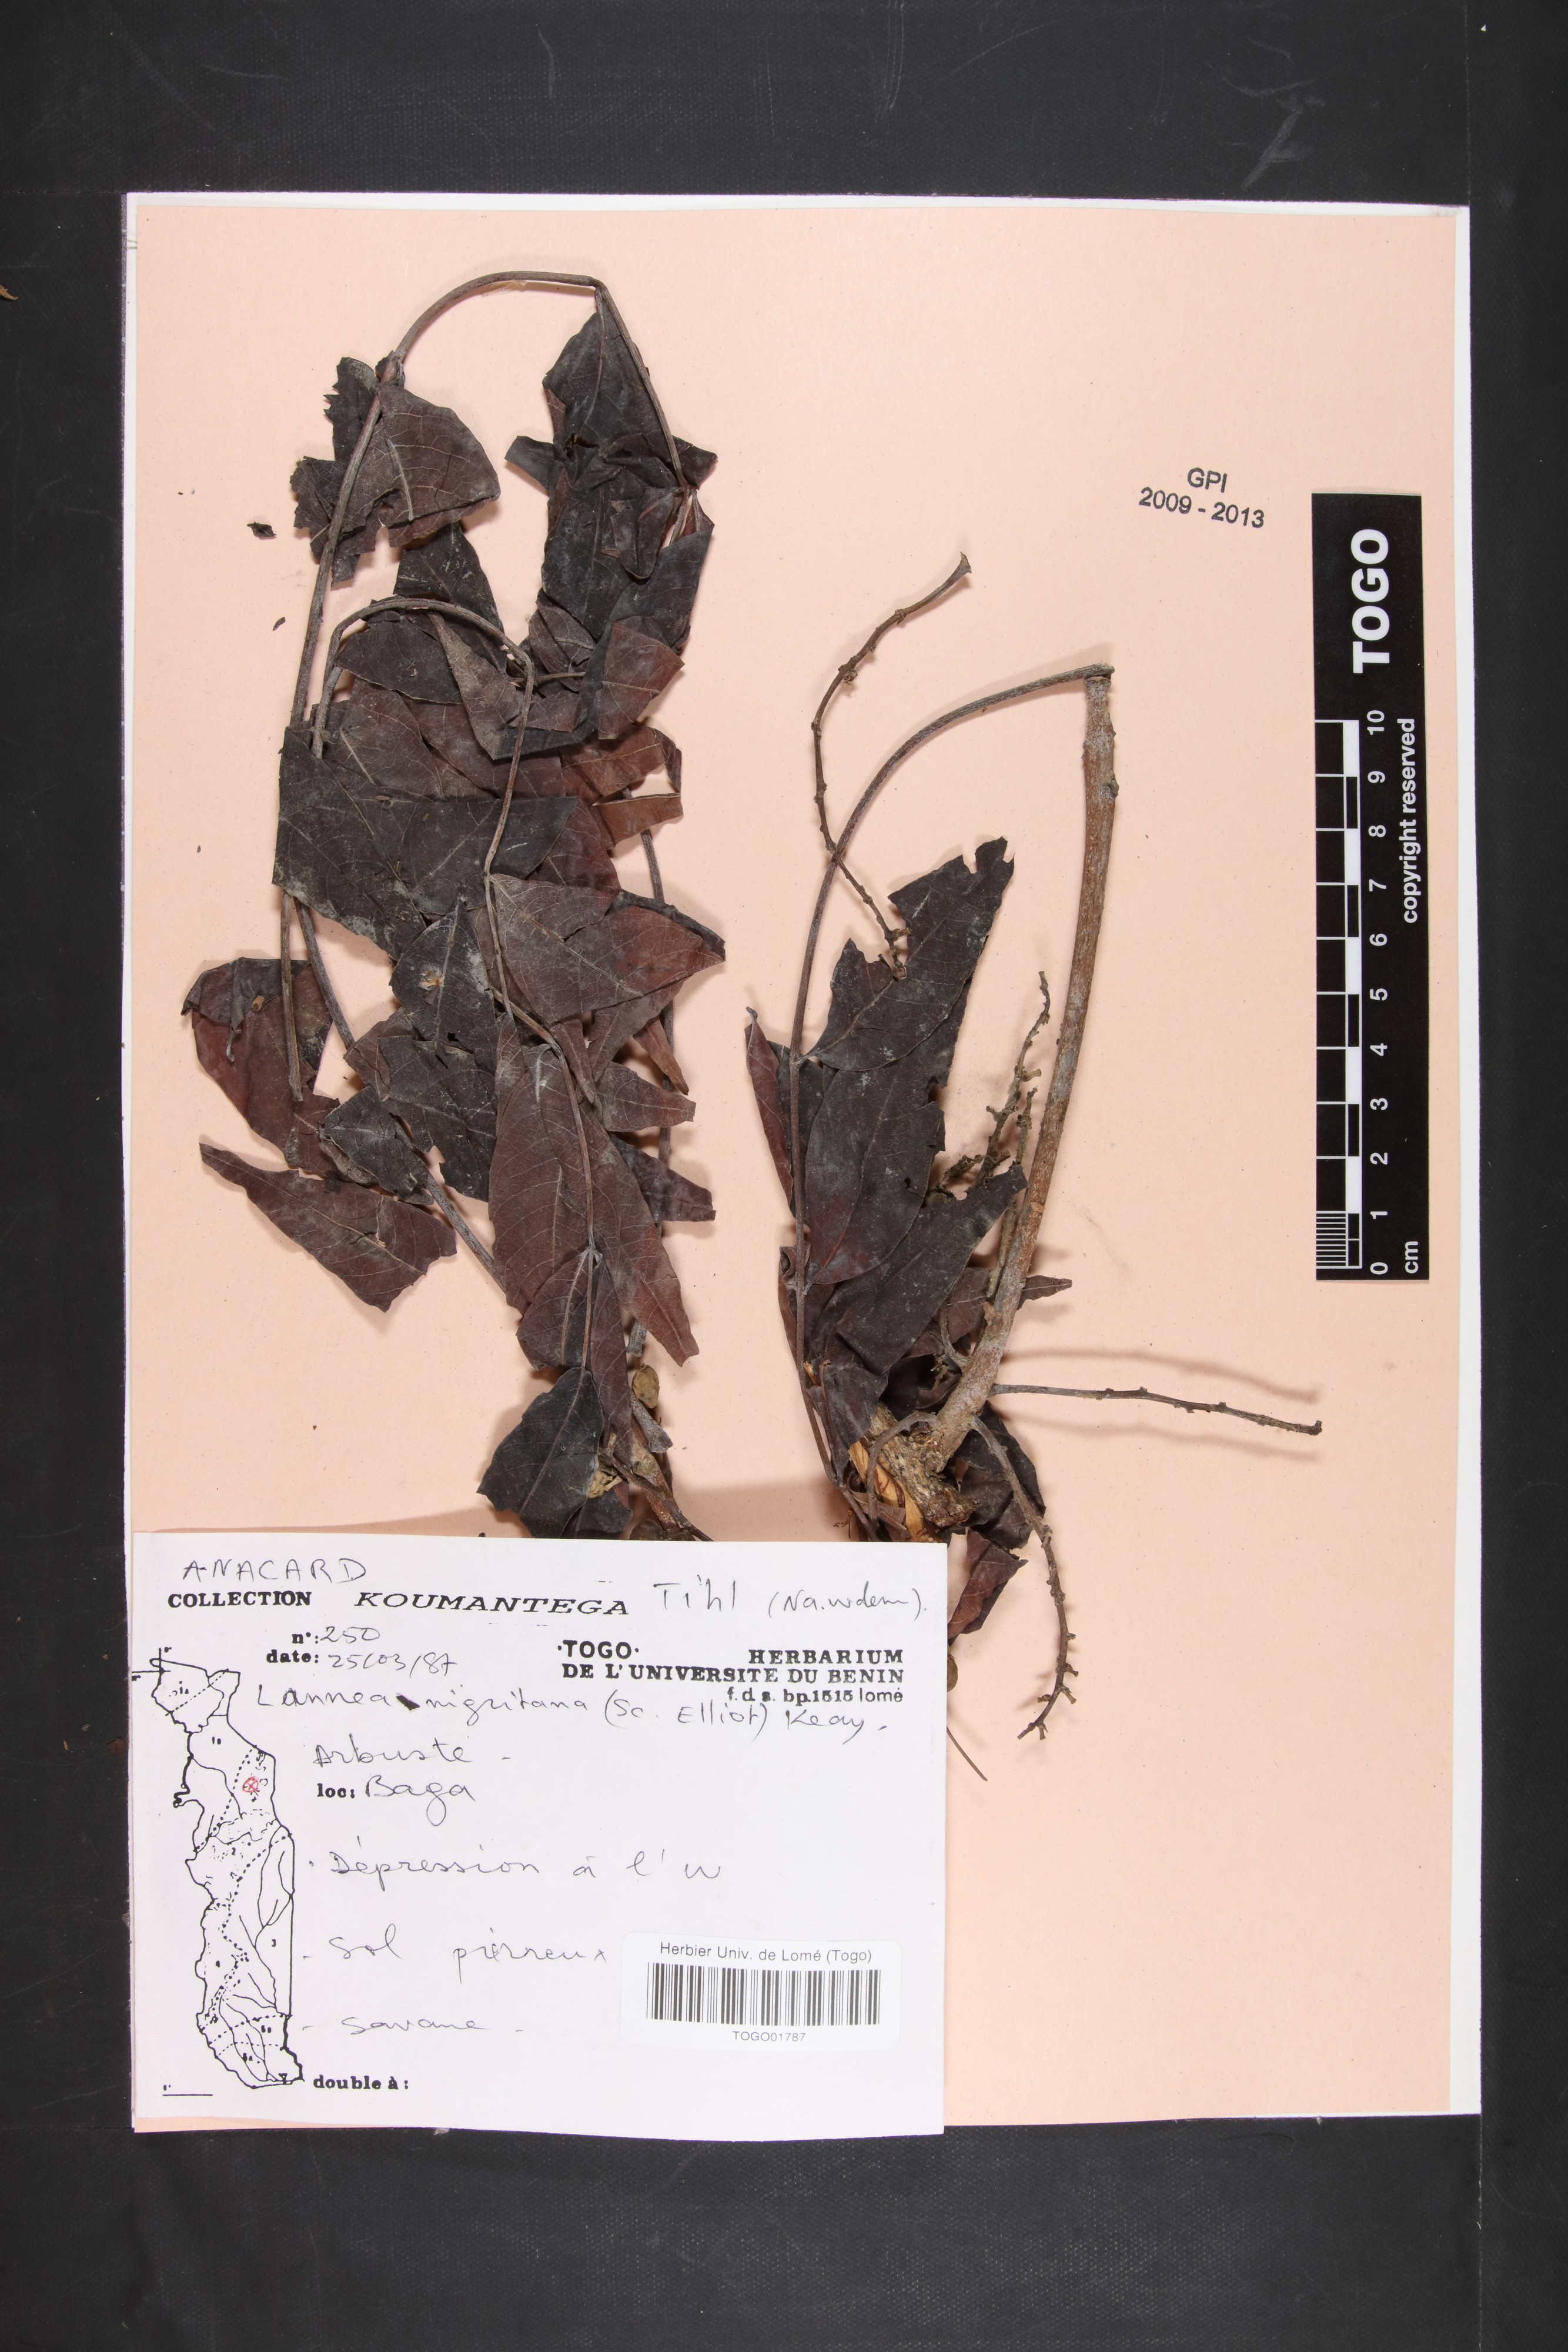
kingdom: Plantae
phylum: Tracheophyta
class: Magnoliopsida
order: Sapindales
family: Anacardiaceae
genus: Lannea
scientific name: Lannea nigritana
